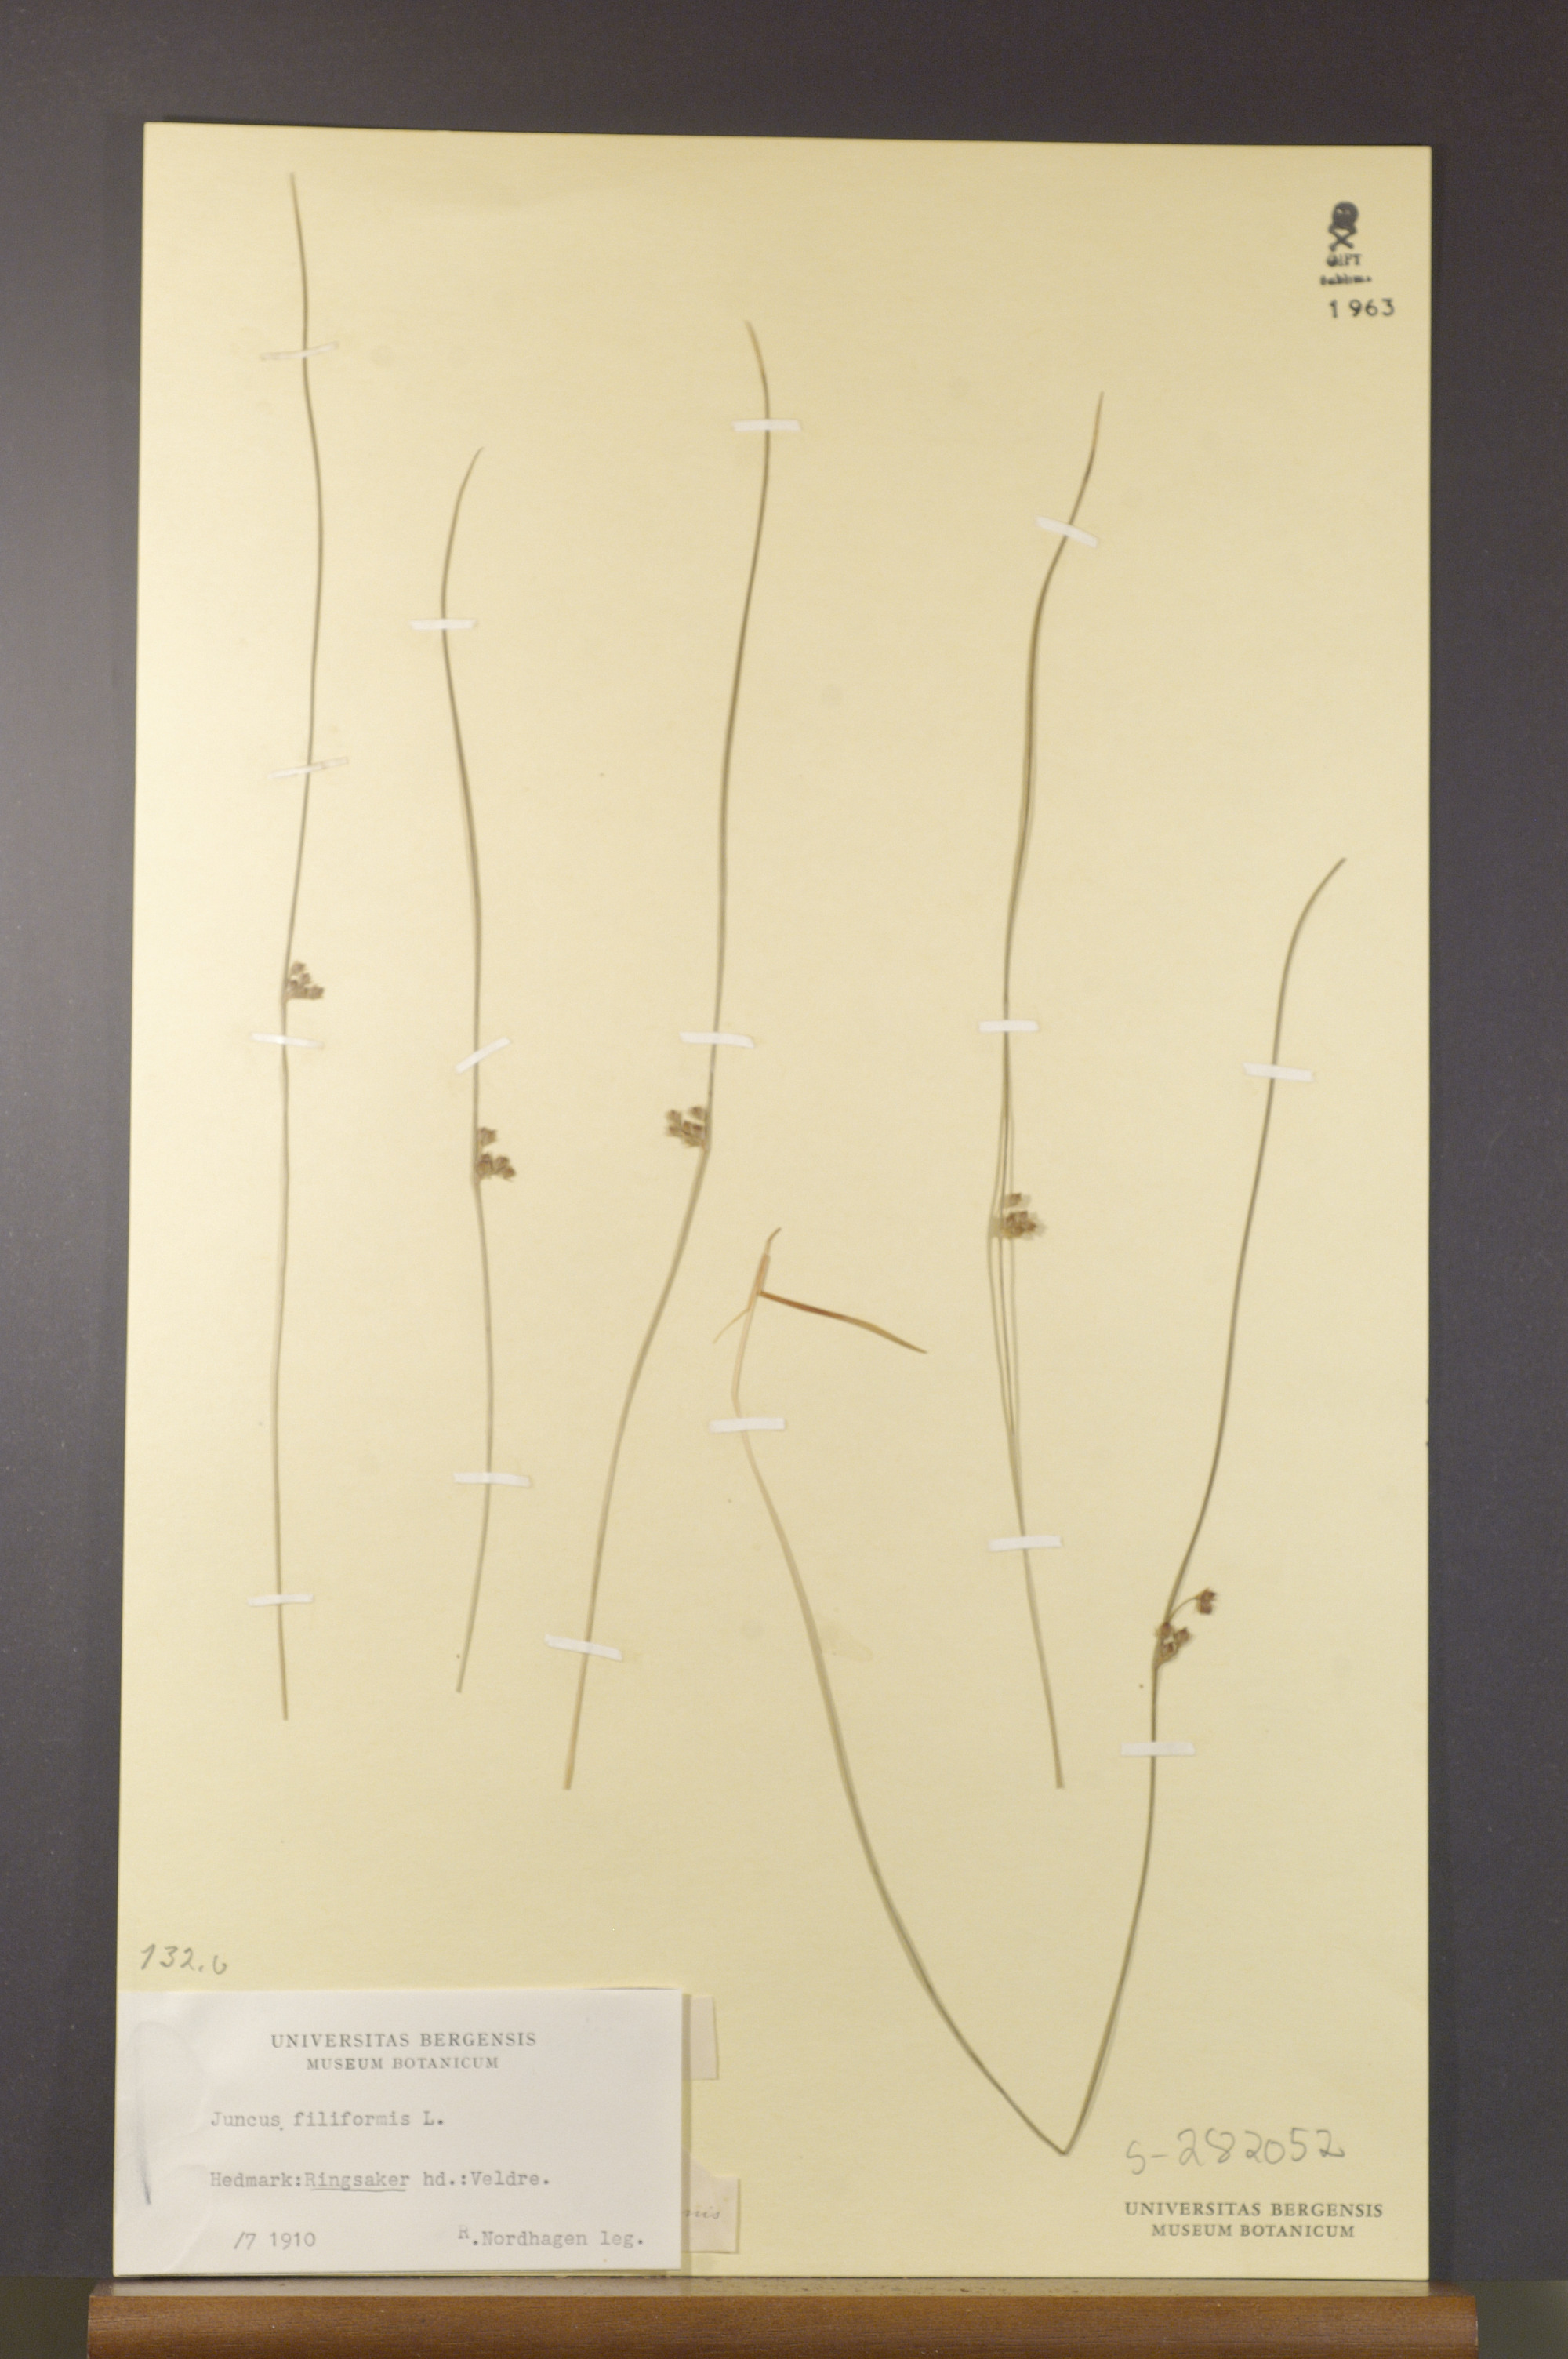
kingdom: Plantae
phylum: Tracheophyta
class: Liliopsida
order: Poales
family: Juncaceae
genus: Juncus
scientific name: Juncus filiformis
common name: Thread rush
